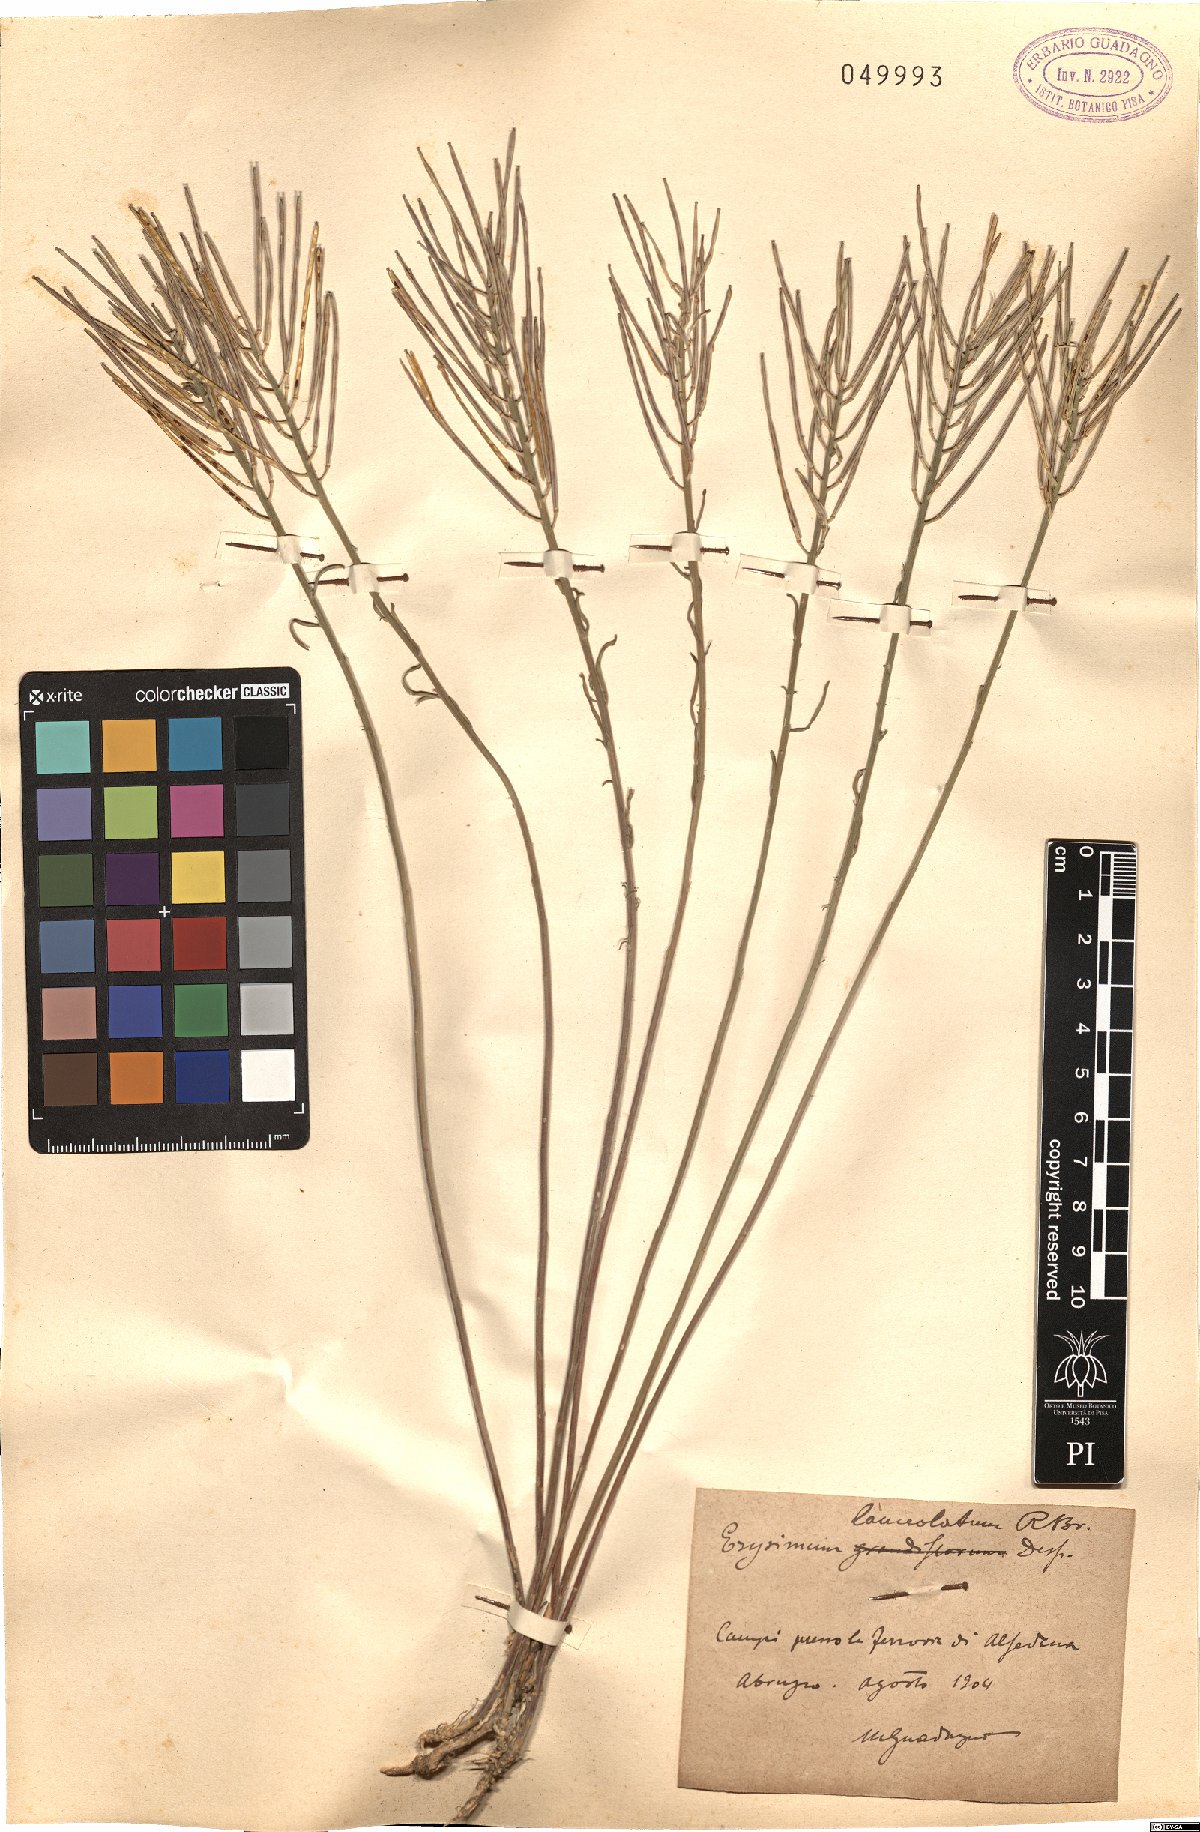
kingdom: Plantae
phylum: Tracheophyta
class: Magnoliopsida
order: Brassicales
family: Brassicaceae
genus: Erysimum
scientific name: Erysimum nevadense
